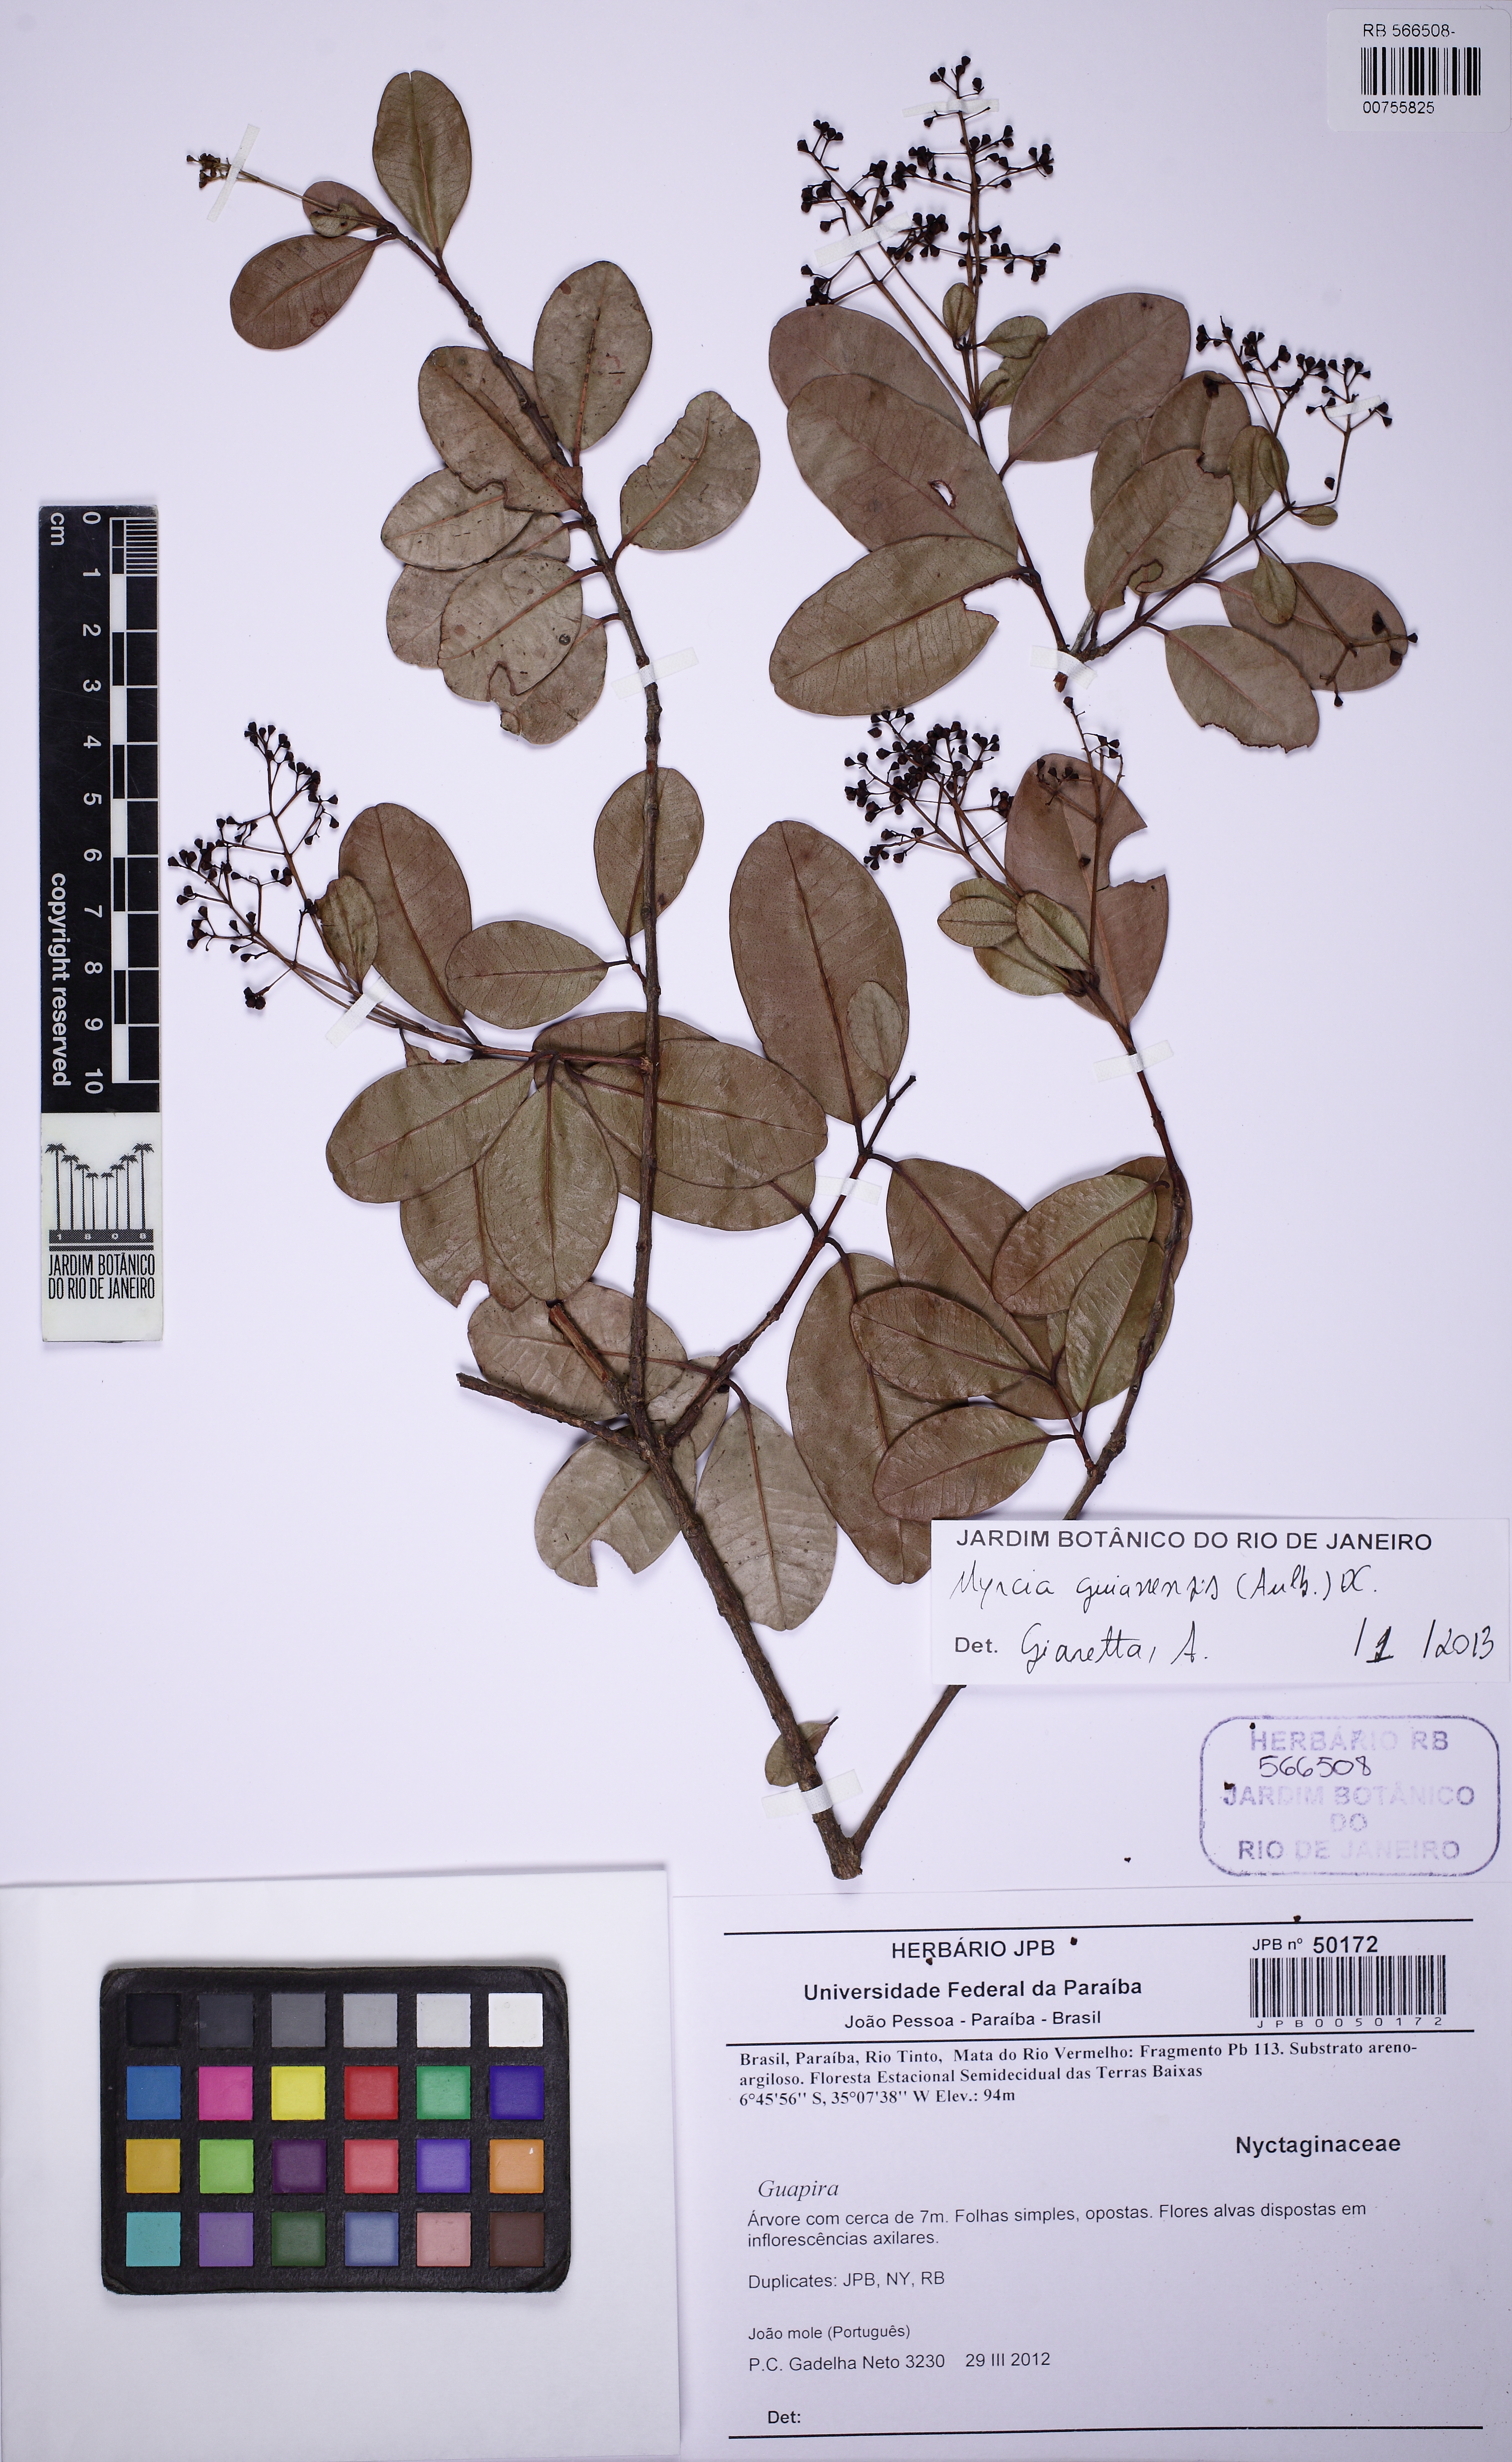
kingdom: Plantae
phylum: Tracheophyta
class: Magnoliopsida
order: Myrtales
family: Myrtaceae
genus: Myrcia
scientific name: Myrcia guianensis
